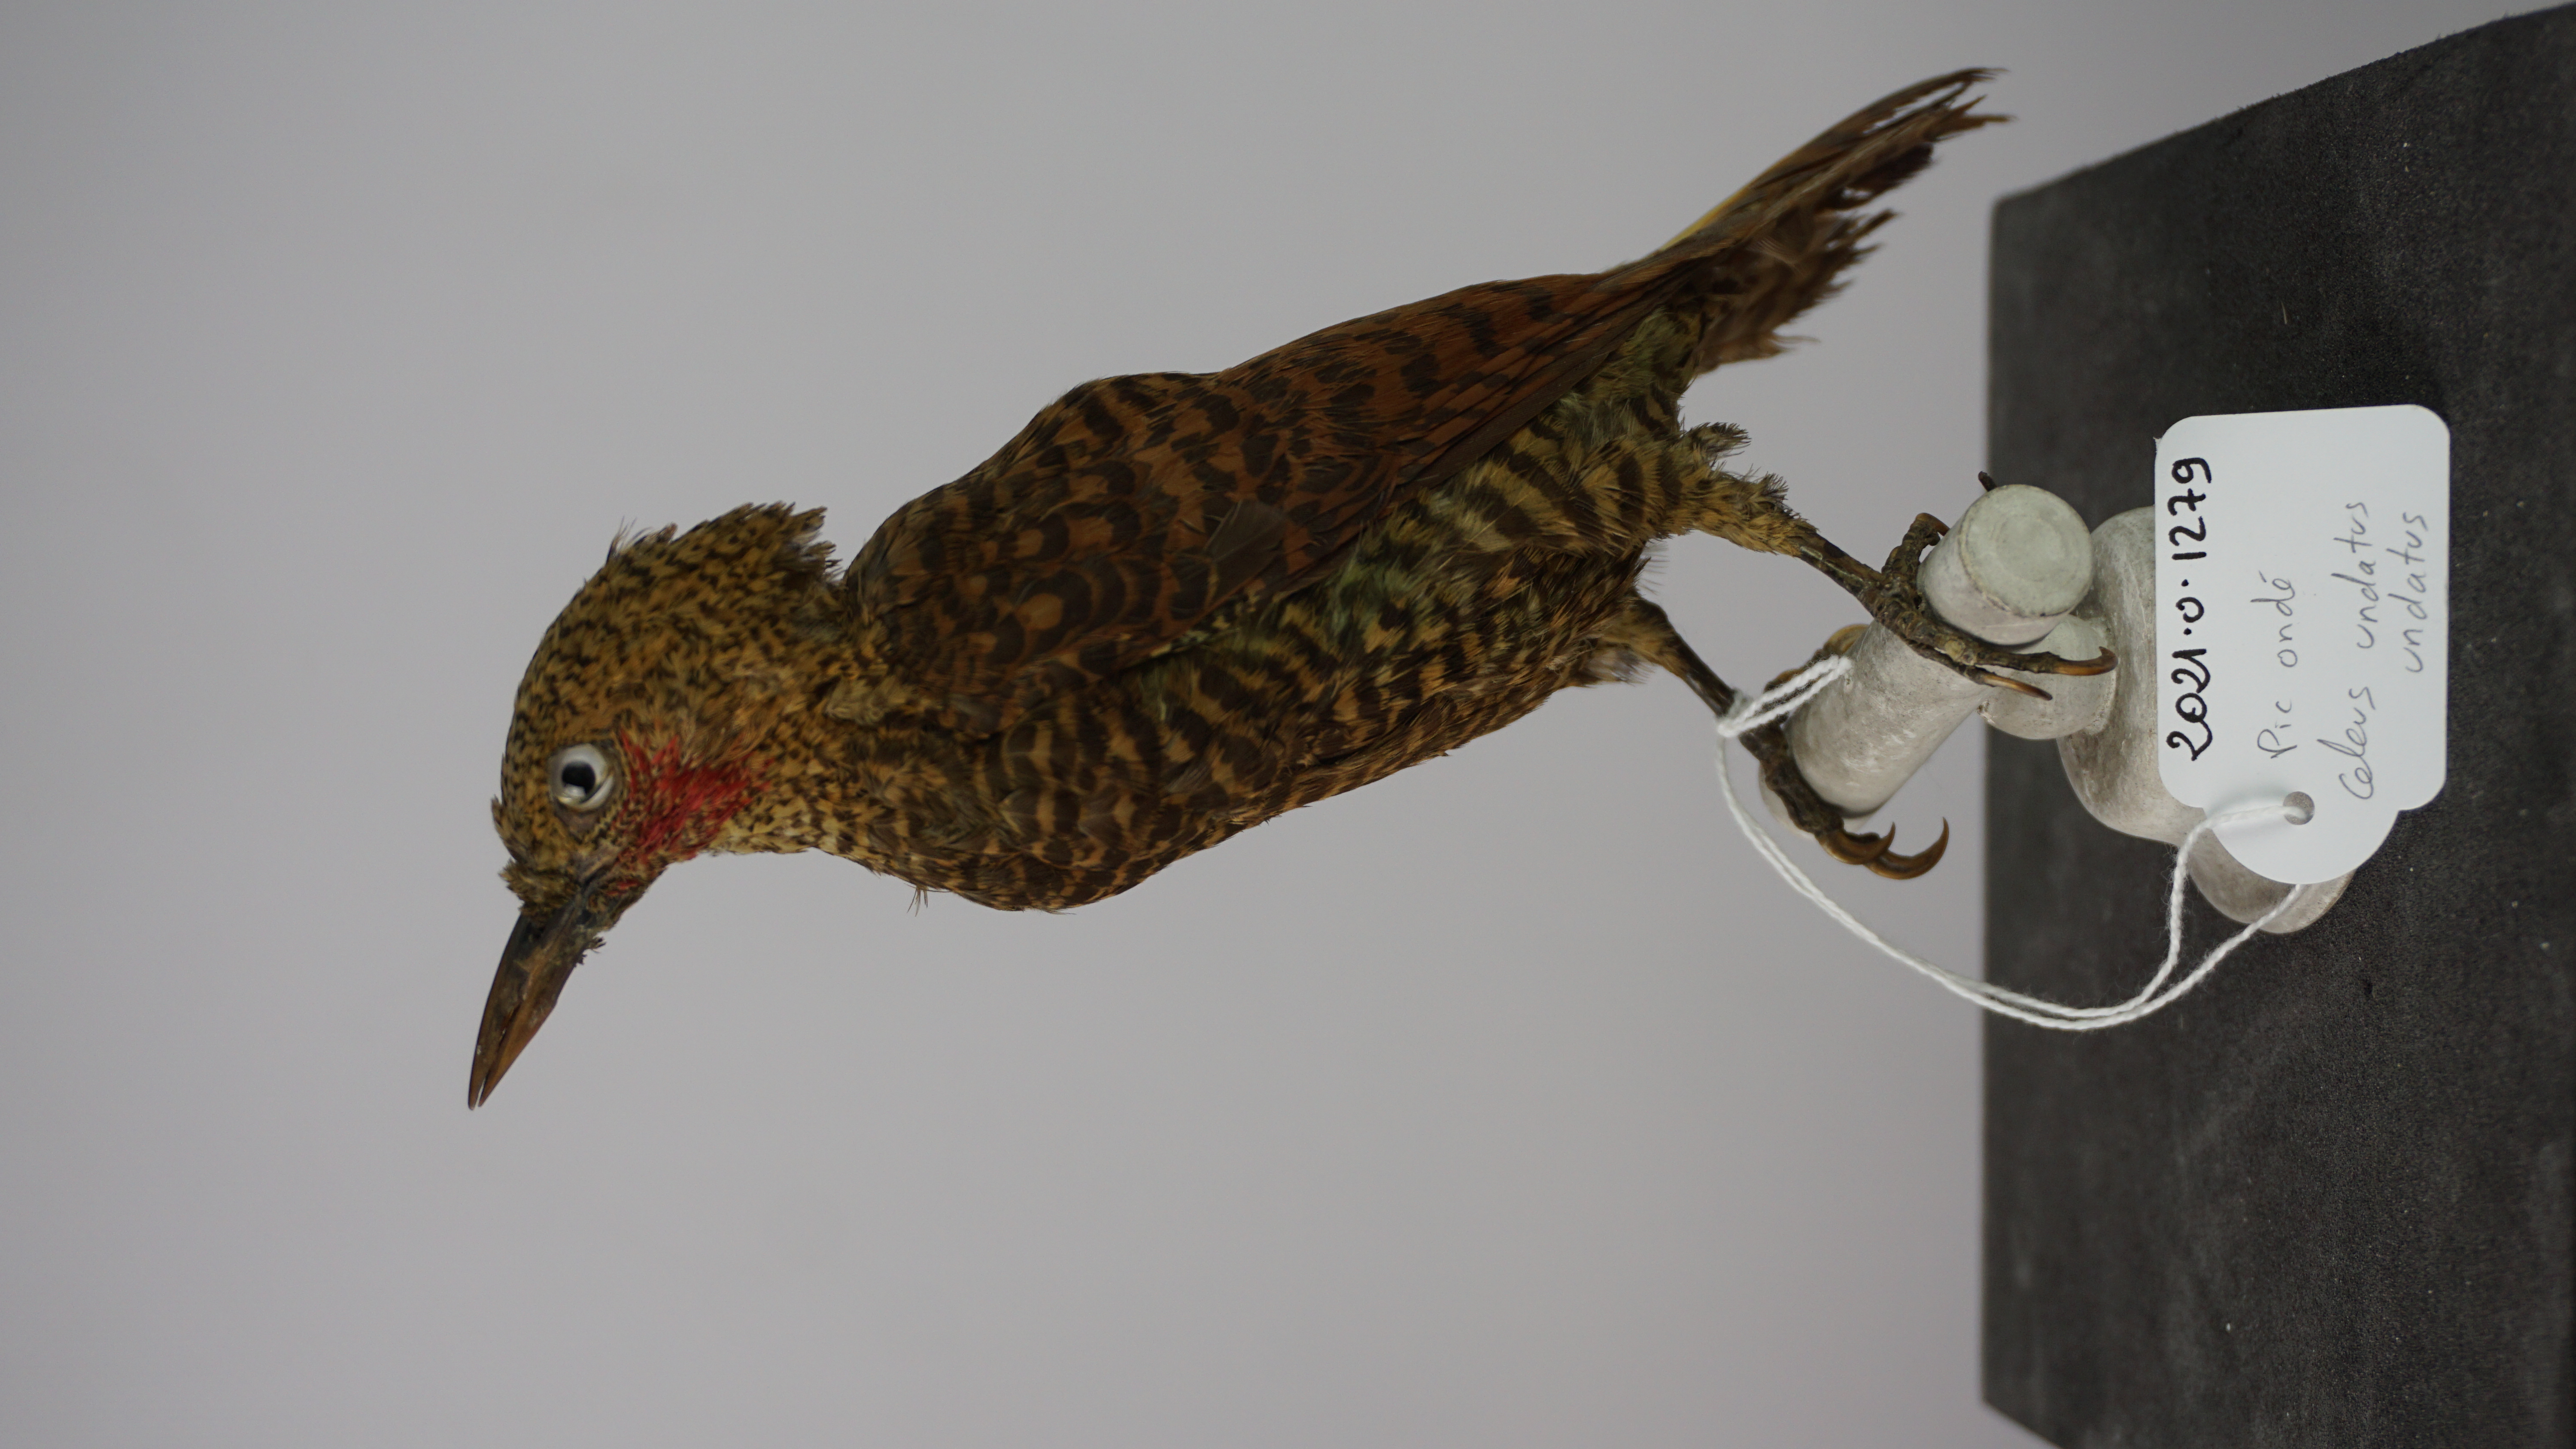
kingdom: Animalia
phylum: Chordata
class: Aves
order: Piciformes
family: Picidae
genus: Celeus
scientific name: Celeus undatus
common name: Waved woodpecker
